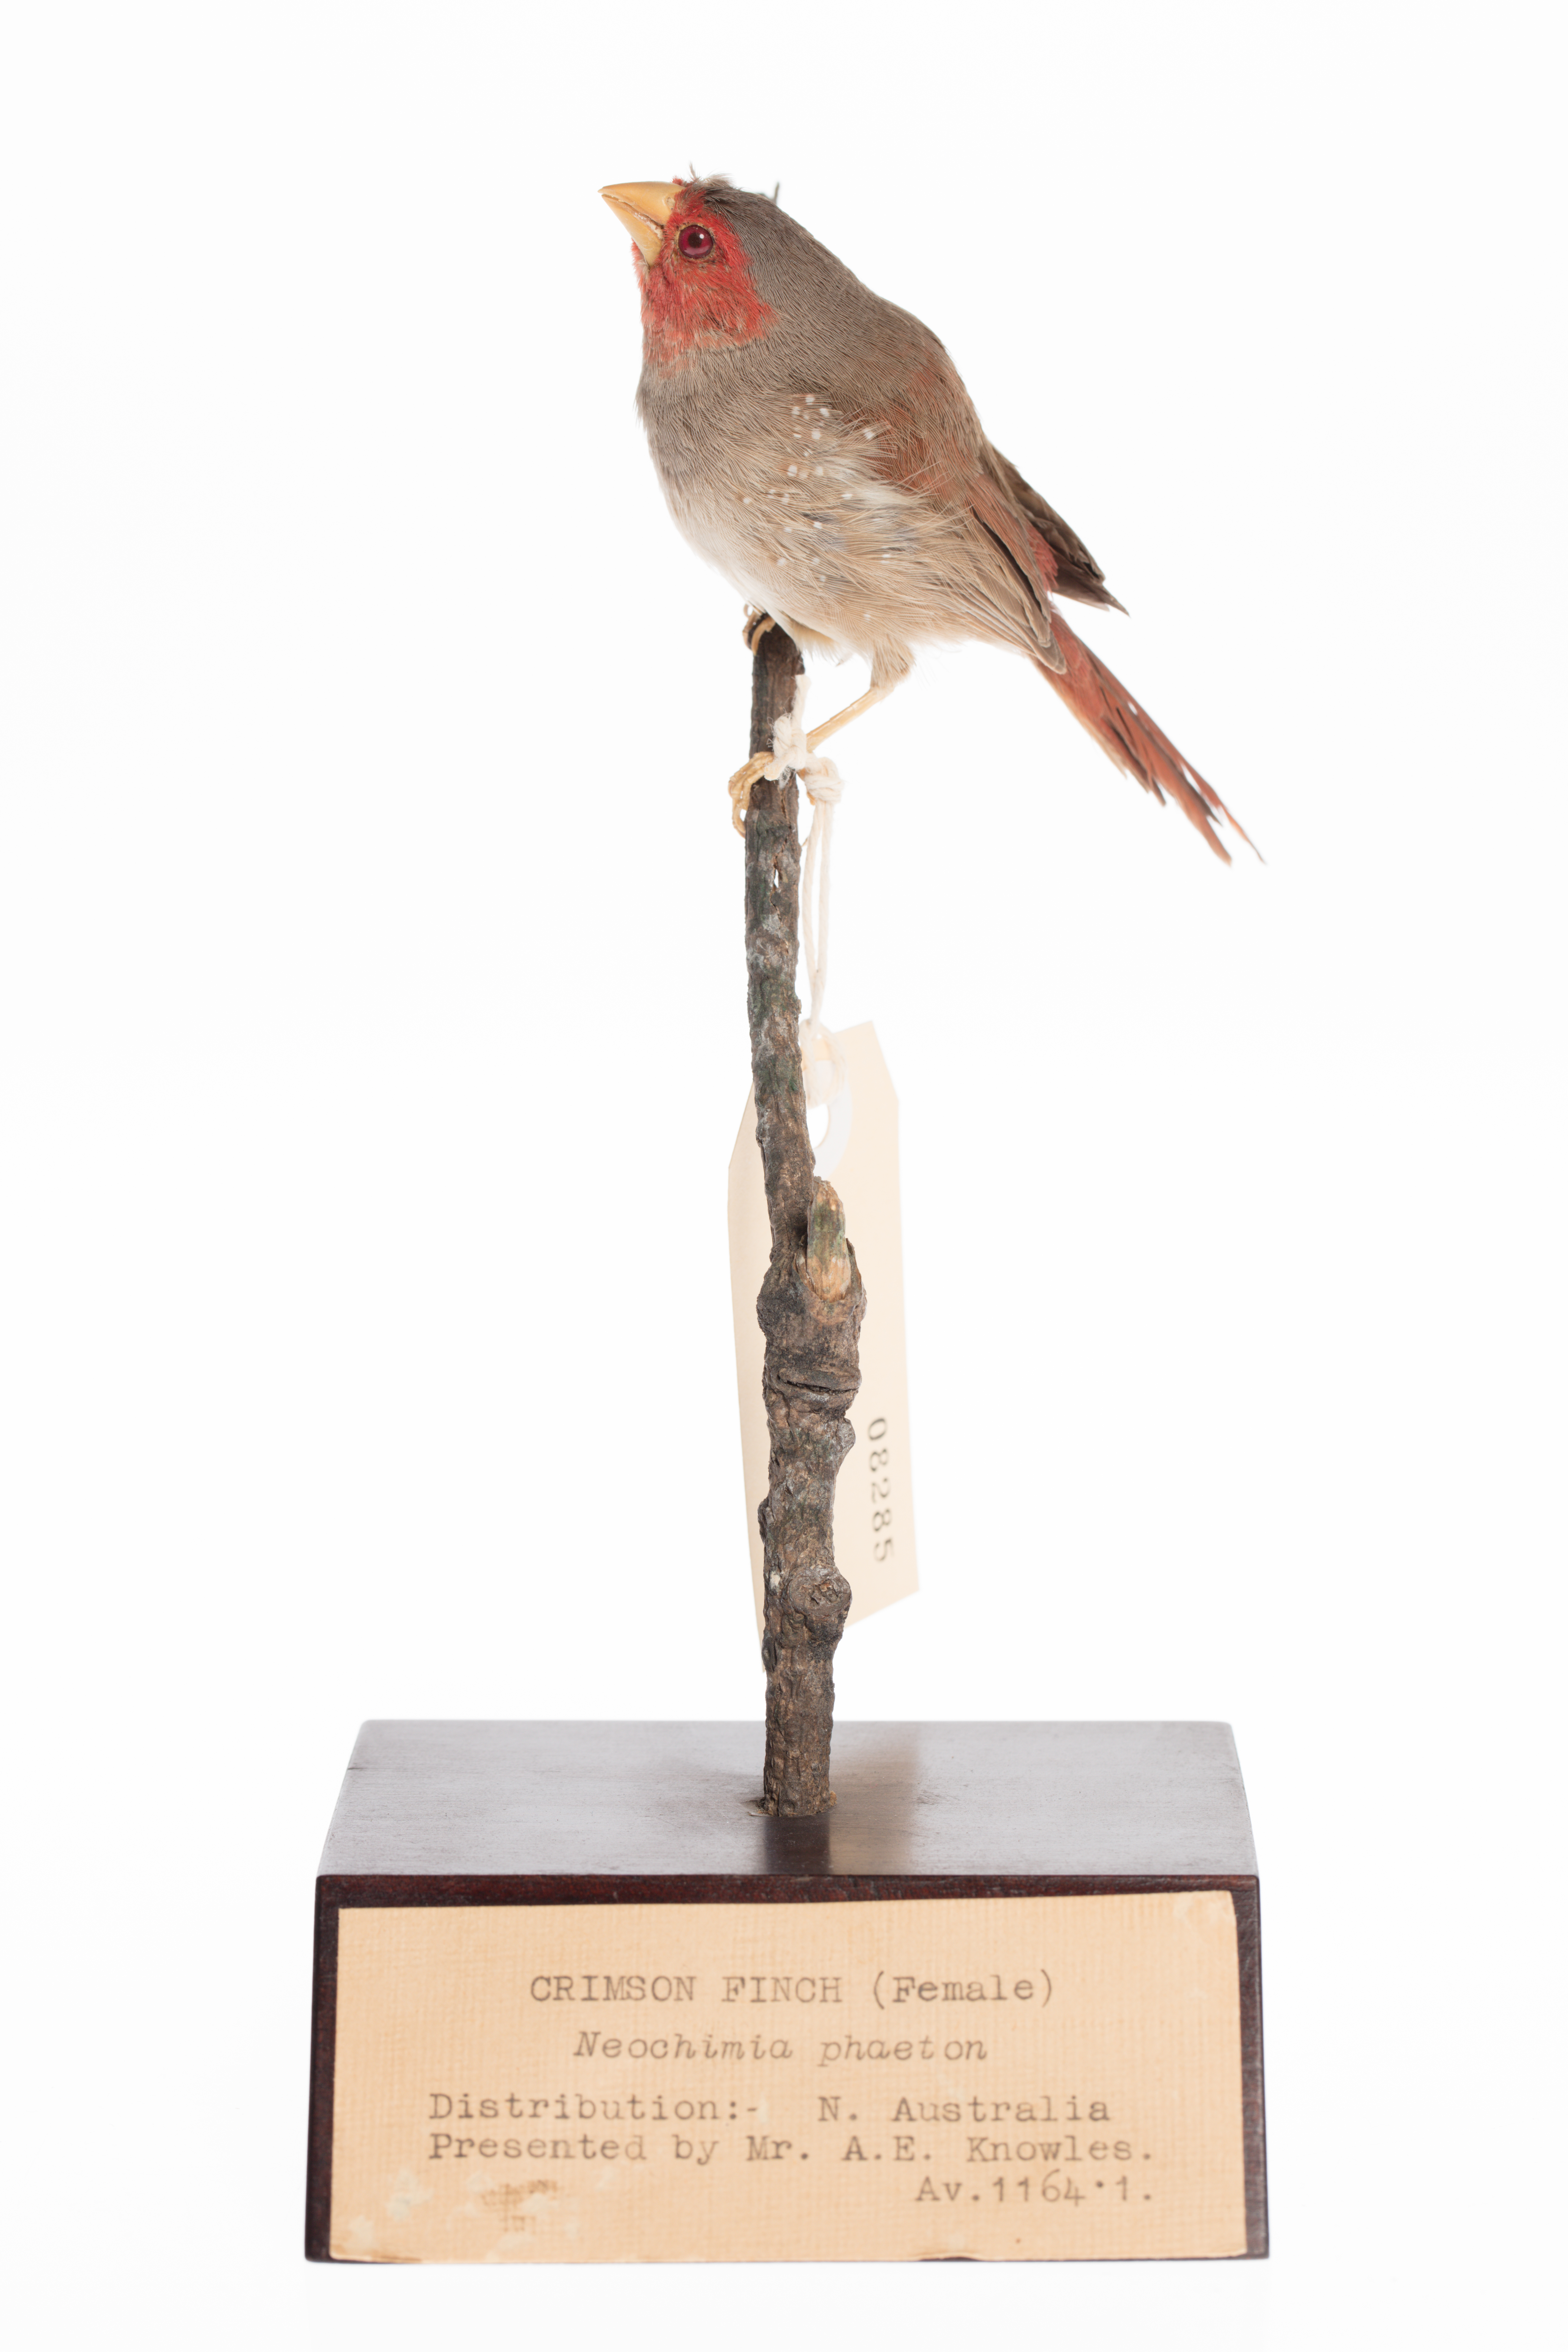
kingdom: Animalia
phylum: Chordata
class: Aves
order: Passeriformes
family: Estrildidae
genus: Neochmia
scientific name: Neochmia phaeton
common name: Crimson finch
